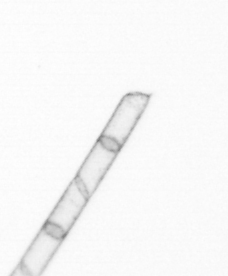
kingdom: Chromista
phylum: Ochrophyta
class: Bacillariophyceae
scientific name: Bacillariophyceae
